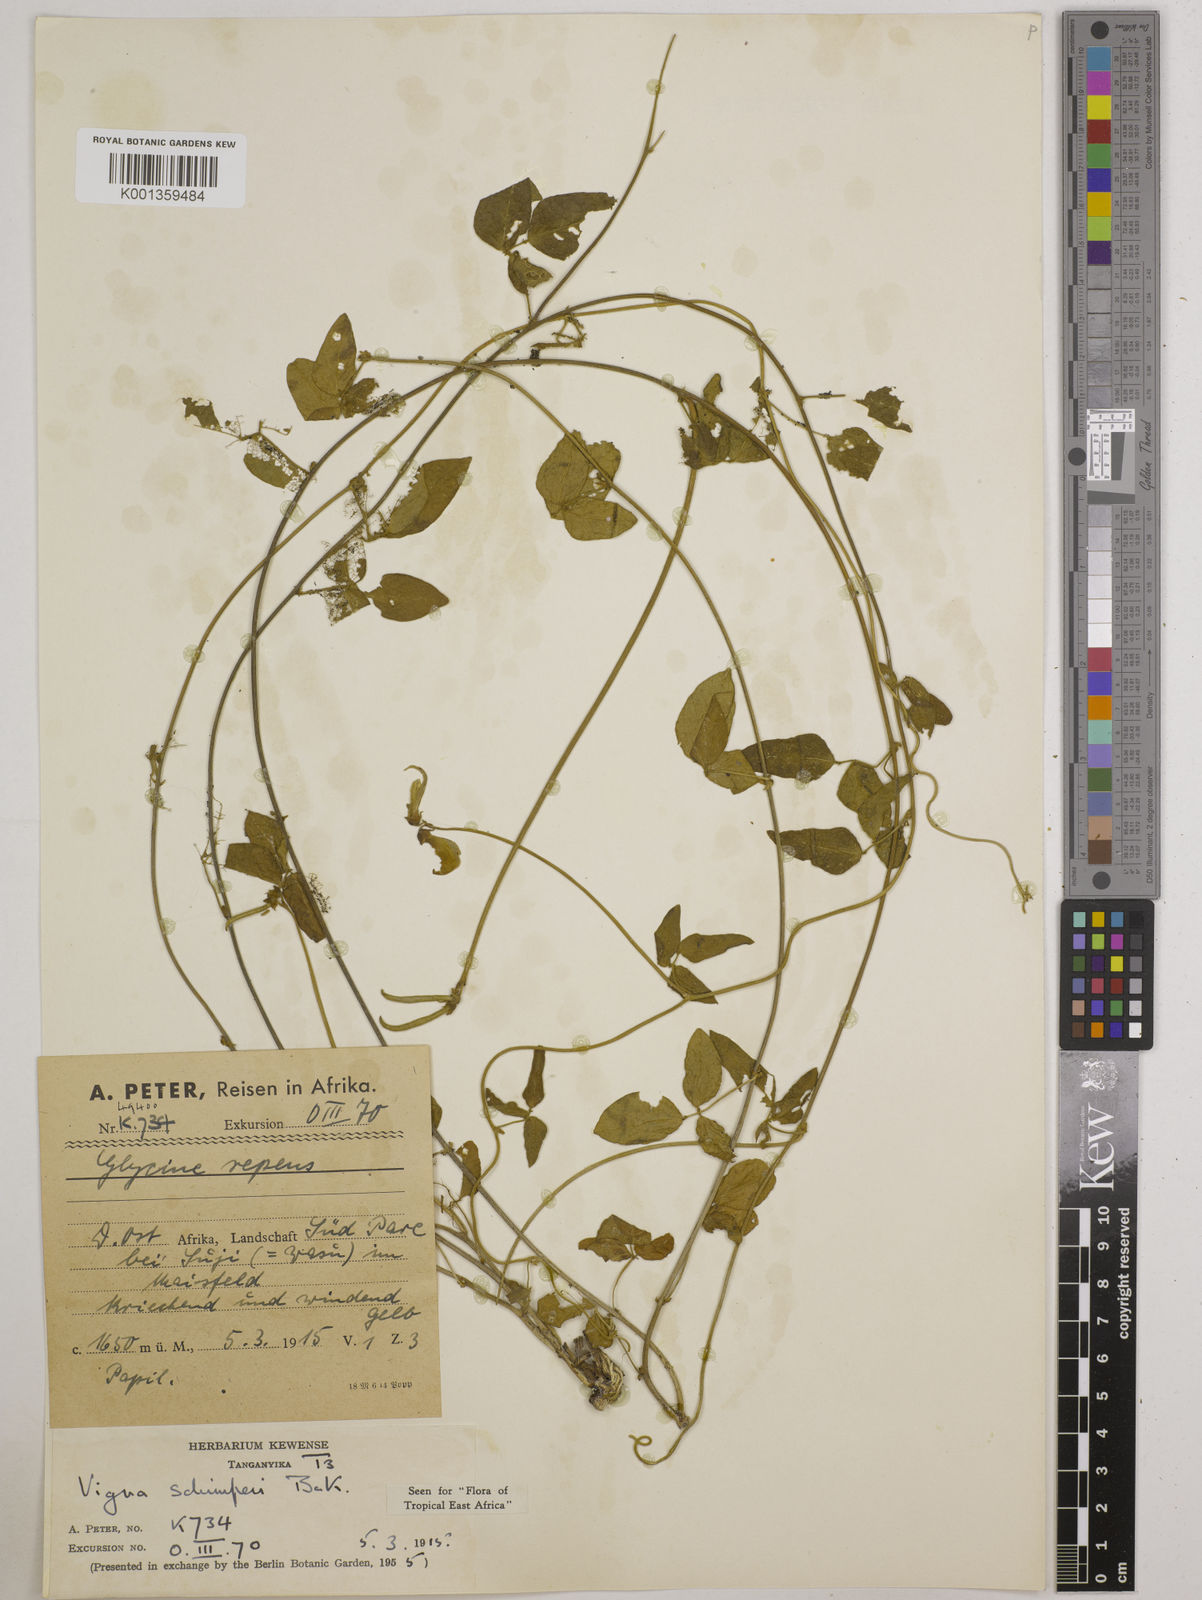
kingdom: Plantae
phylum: Tracheophyta
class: Magnoliopsida
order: Fabales
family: Fabaceae
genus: Vigna
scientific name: Vigna schimperi
